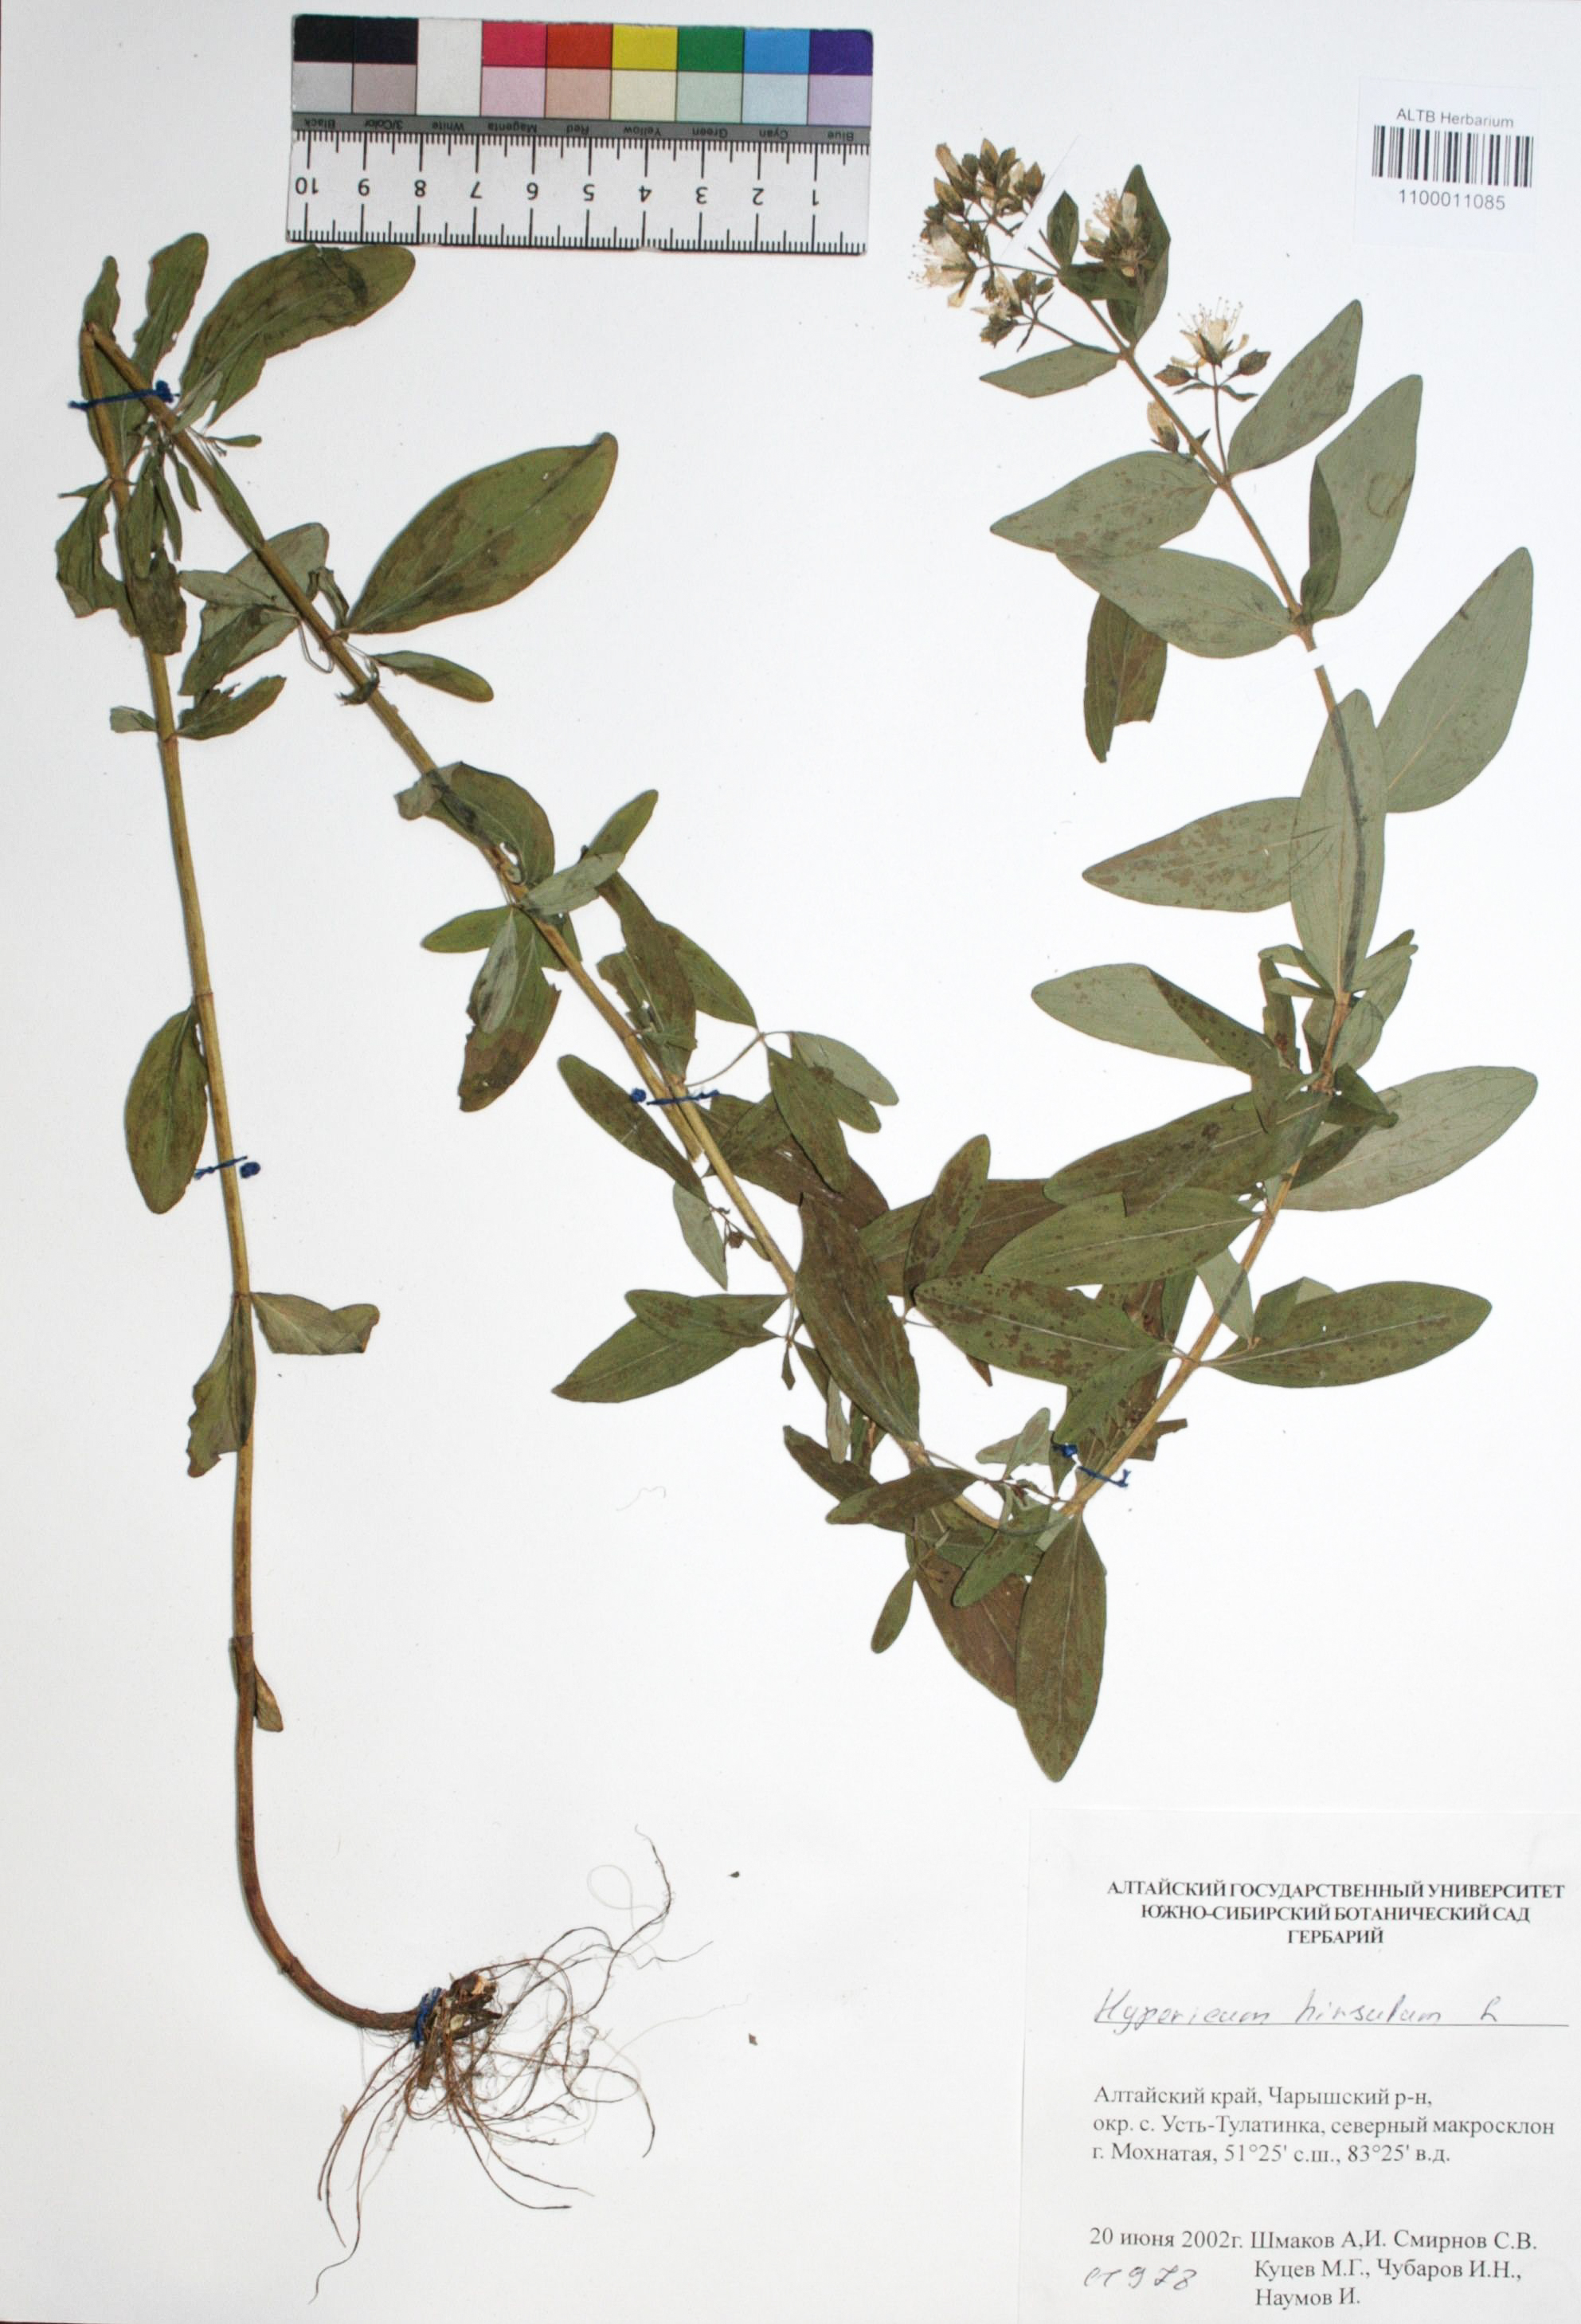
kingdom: Plantae
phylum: Tracheophyta
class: Magnoliopsida
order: Malpighiales
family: Hypericaceae
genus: Hypericum
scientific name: Hypericum hirsutum
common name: Hairy st. john's-wort
